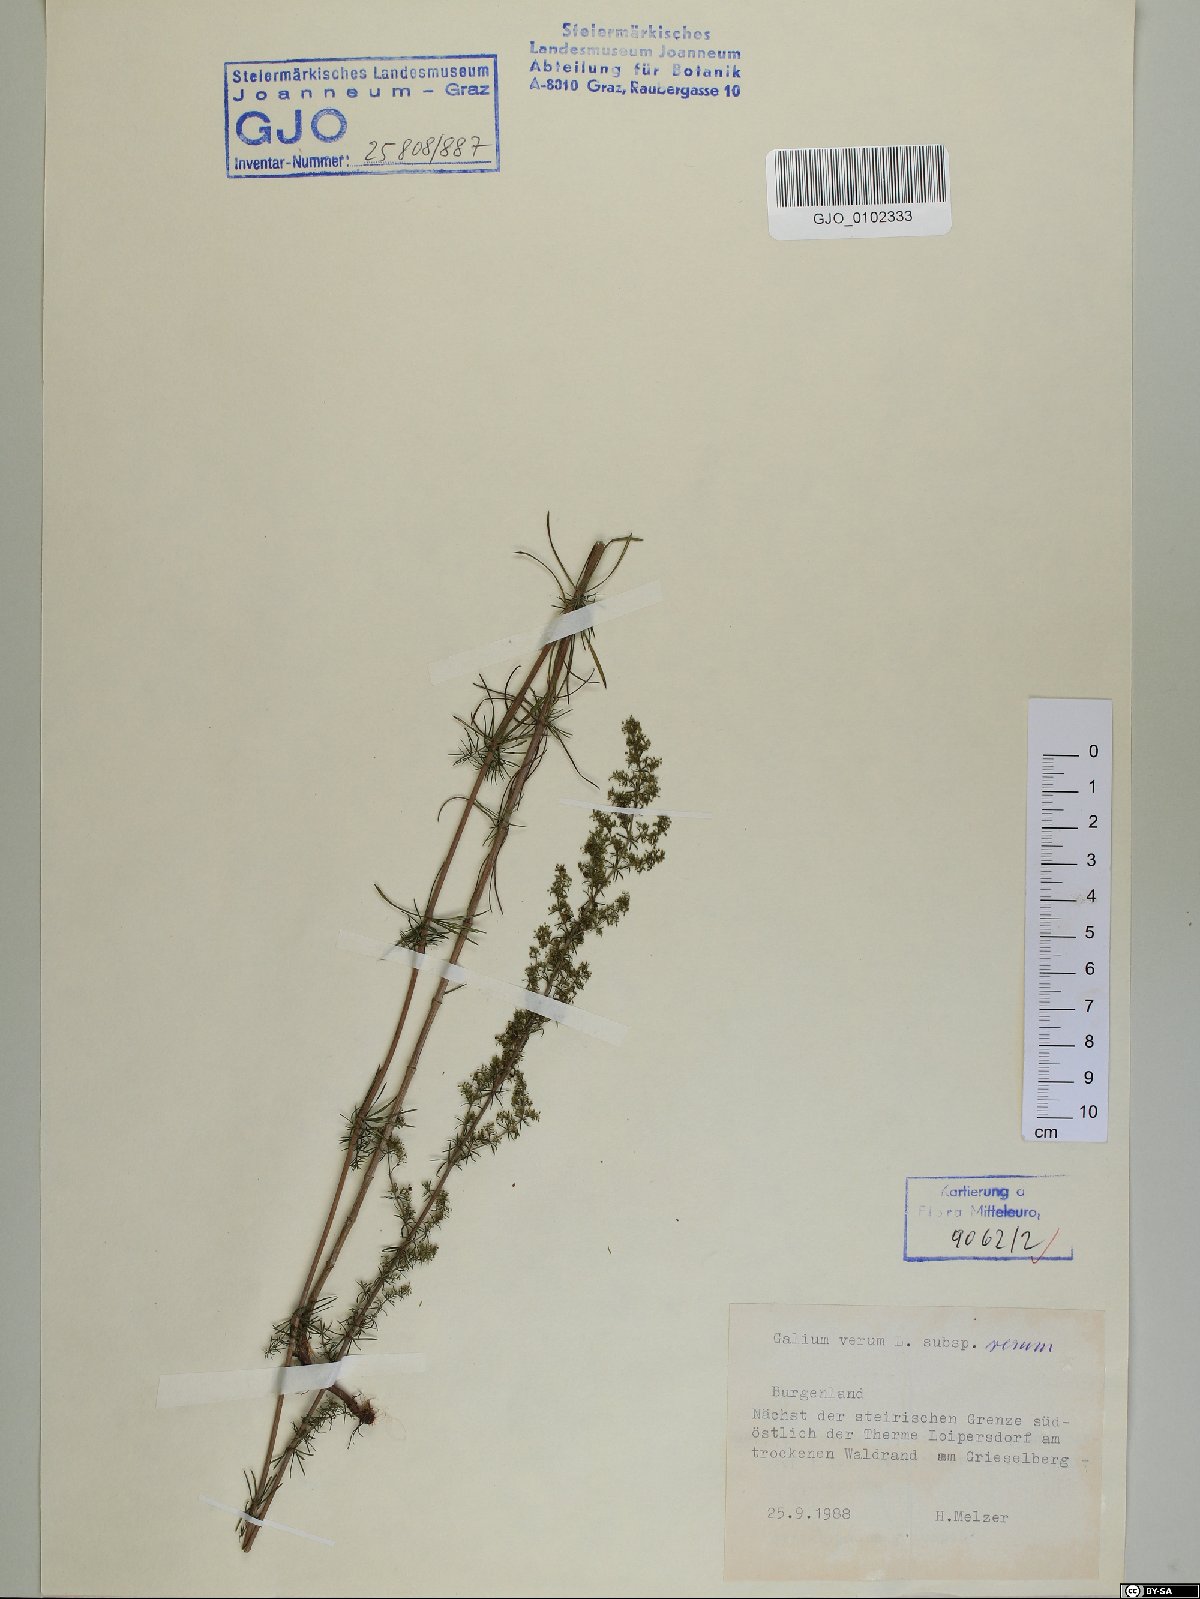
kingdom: Plantae
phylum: Tracheophyta
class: Magnoliopsida
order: Gentianales
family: Rubiaceae
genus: Galium
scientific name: Galium verum
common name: Lady's bedstraw
